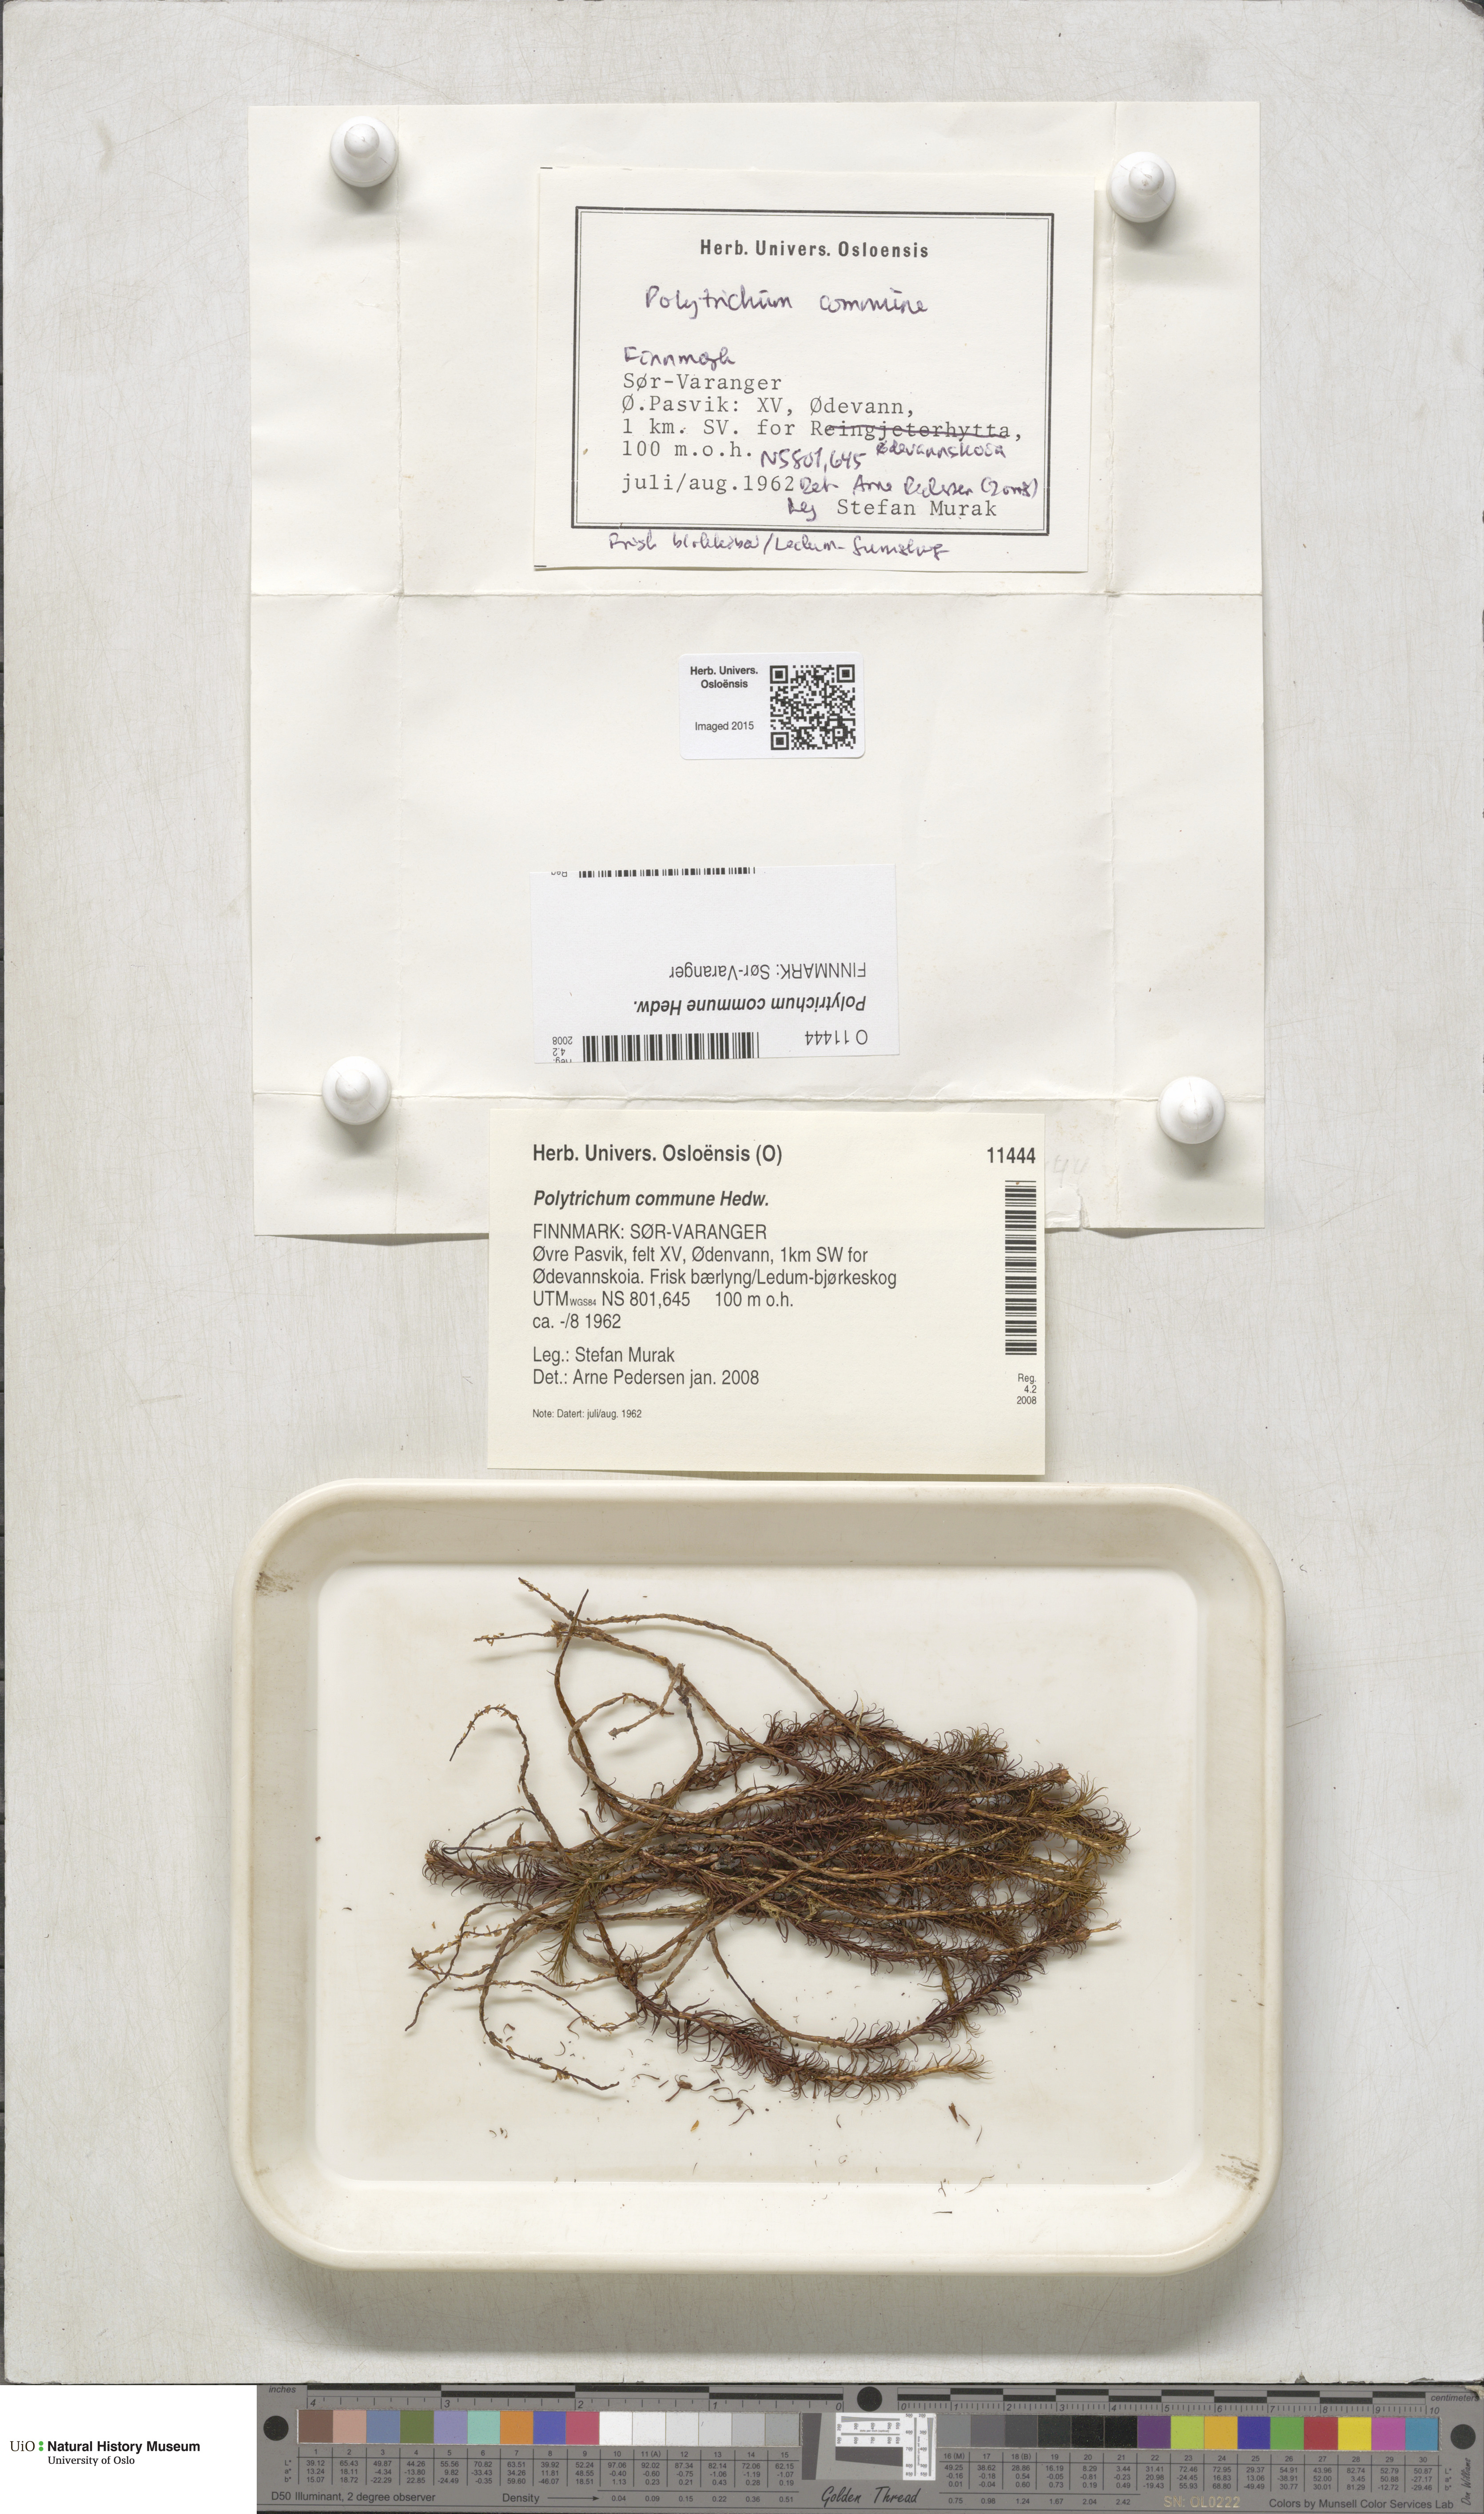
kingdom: Plantae
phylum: Bryophyta
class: Polytrichopsida
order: Polytrichales
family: Polytrichaceae
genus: Polytrichum
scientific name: Polytrichum commune
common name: Common haircap
